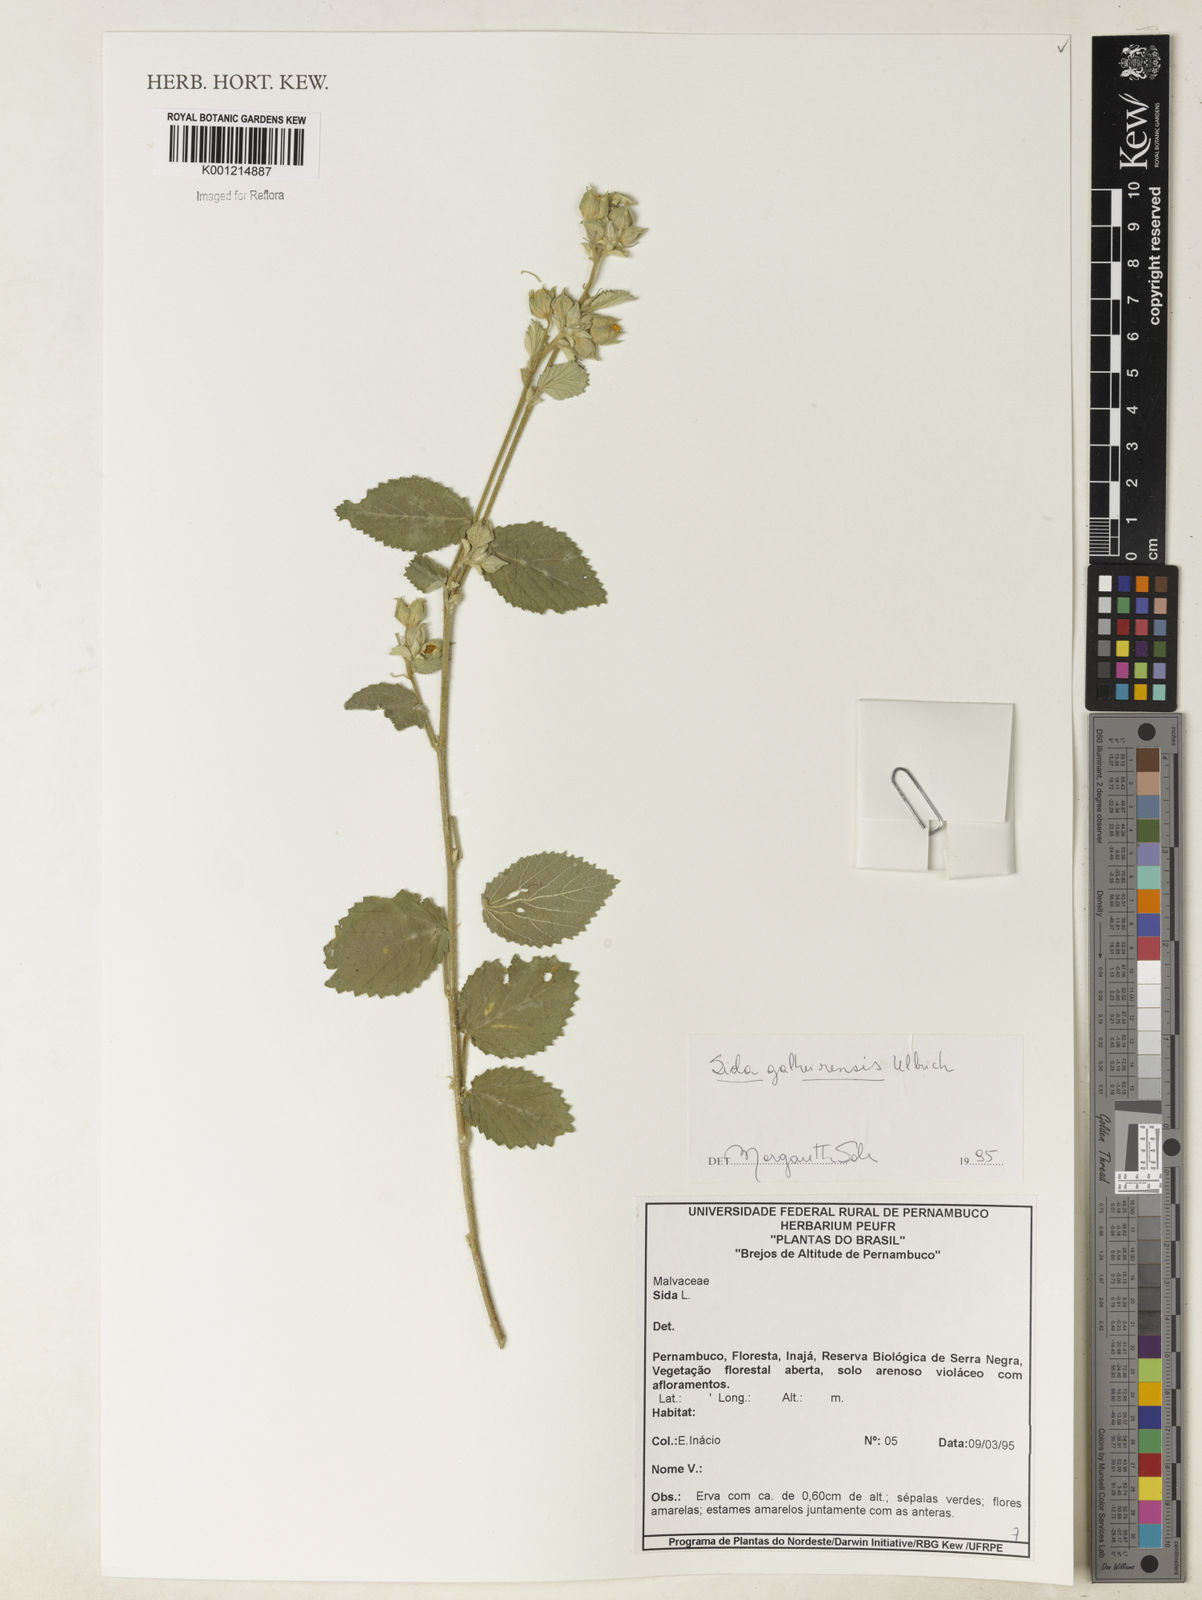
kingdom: Plantae
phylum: Tracheophyta
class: Magnoliopsida
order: Malvales
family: Malvaceae
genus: Sida
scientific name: Sida galheirensis
